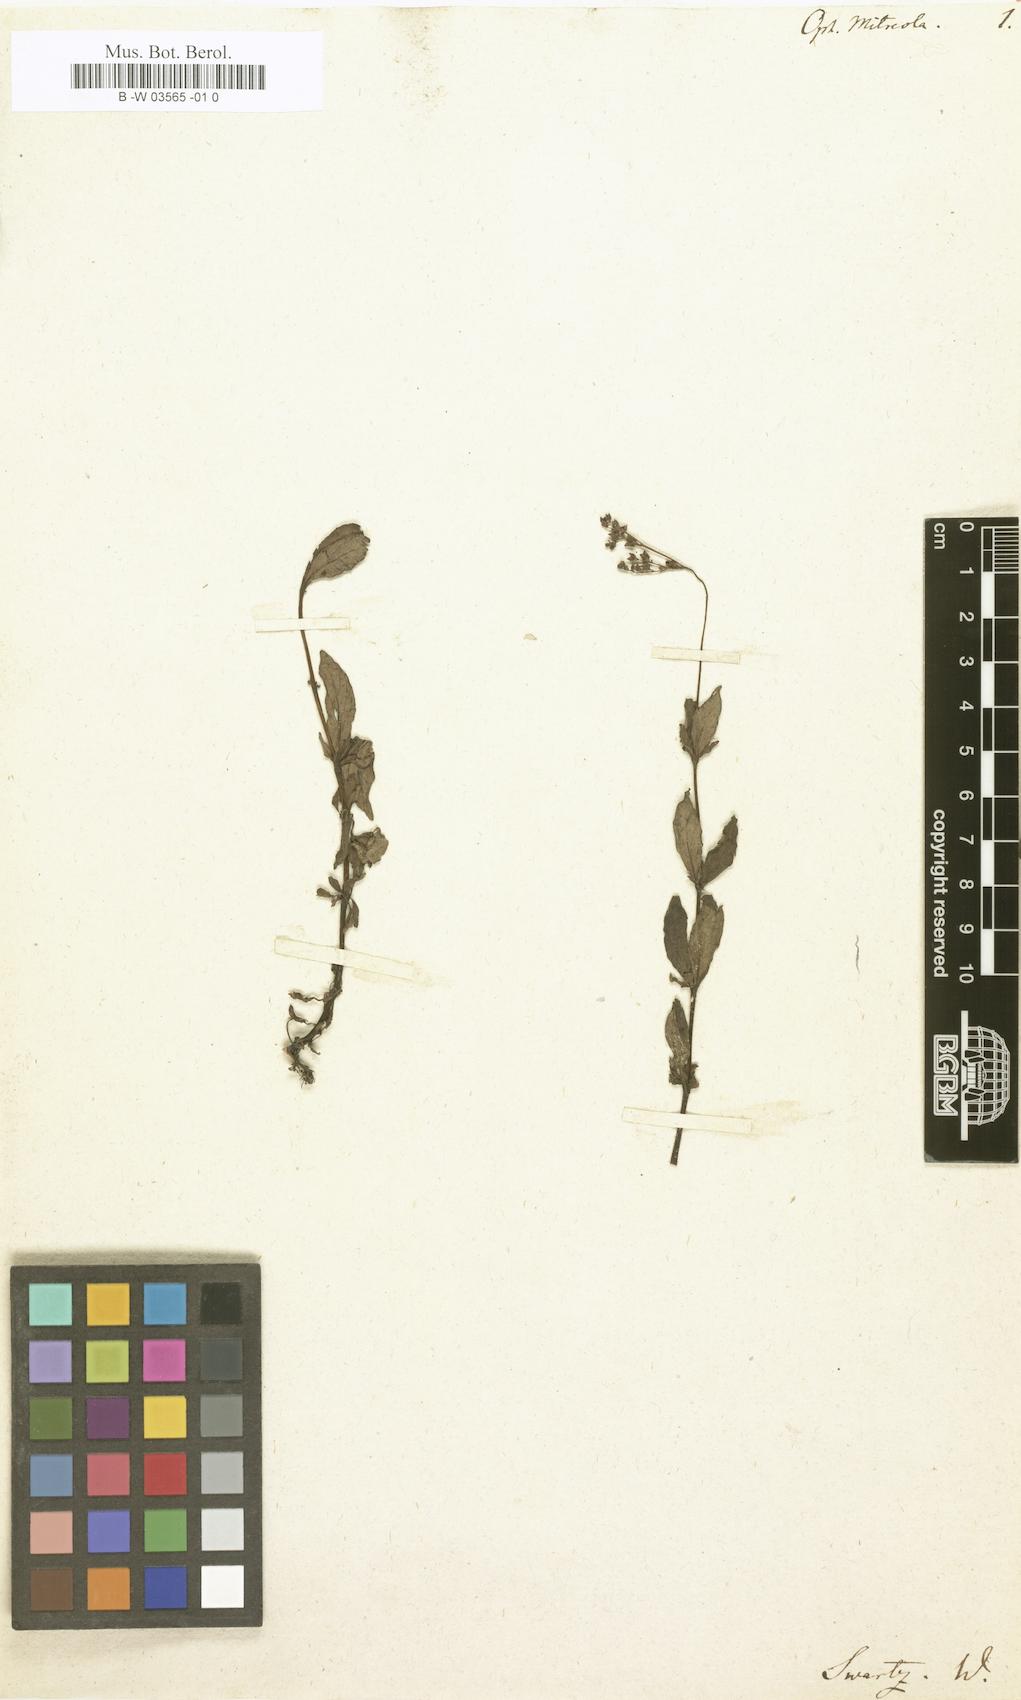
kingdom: Plantae
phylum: Tracheophyta
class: Magnoliopsida
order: Gentianales
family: Loganiaceae
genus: Mitreola
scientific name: Mitreola petiolata
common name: Lax hornpod
